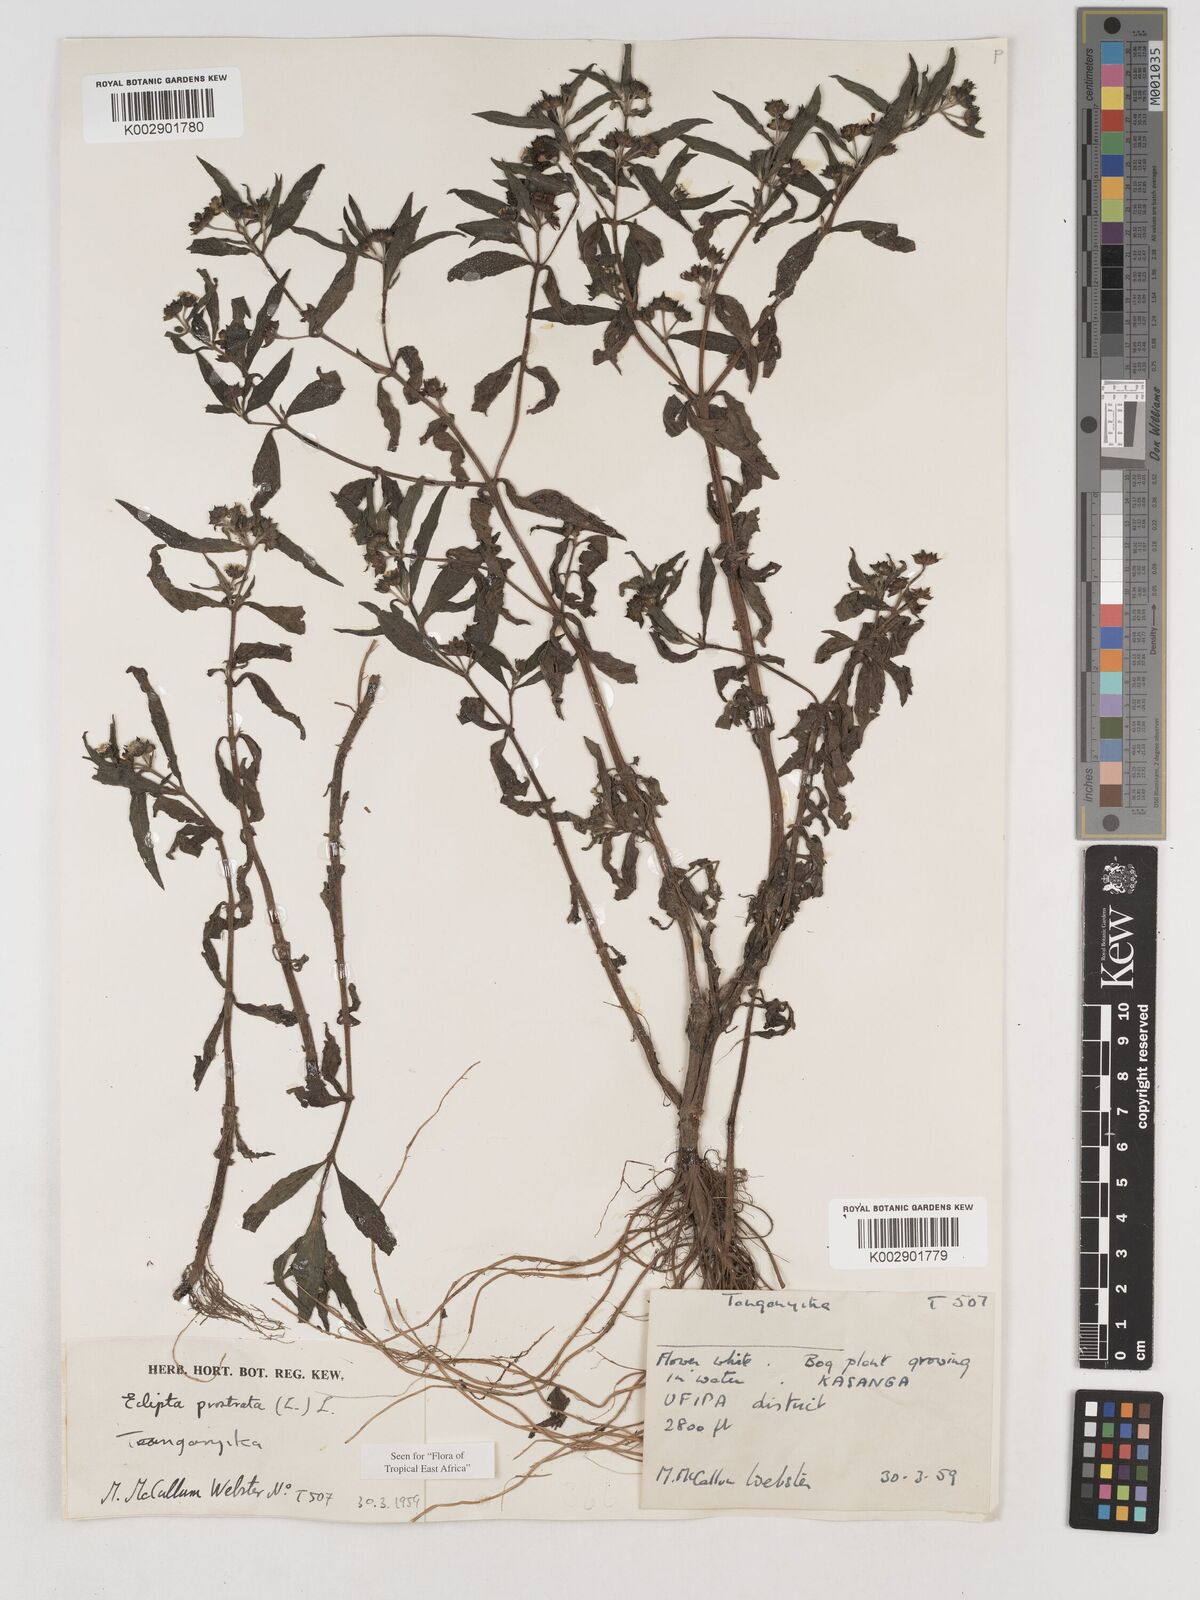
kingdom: Plantae
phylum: Tracheophyta
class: Magnoliopsida
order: Asterales
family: Asteraceae
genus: Eclipta
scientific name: Eclipta alba
